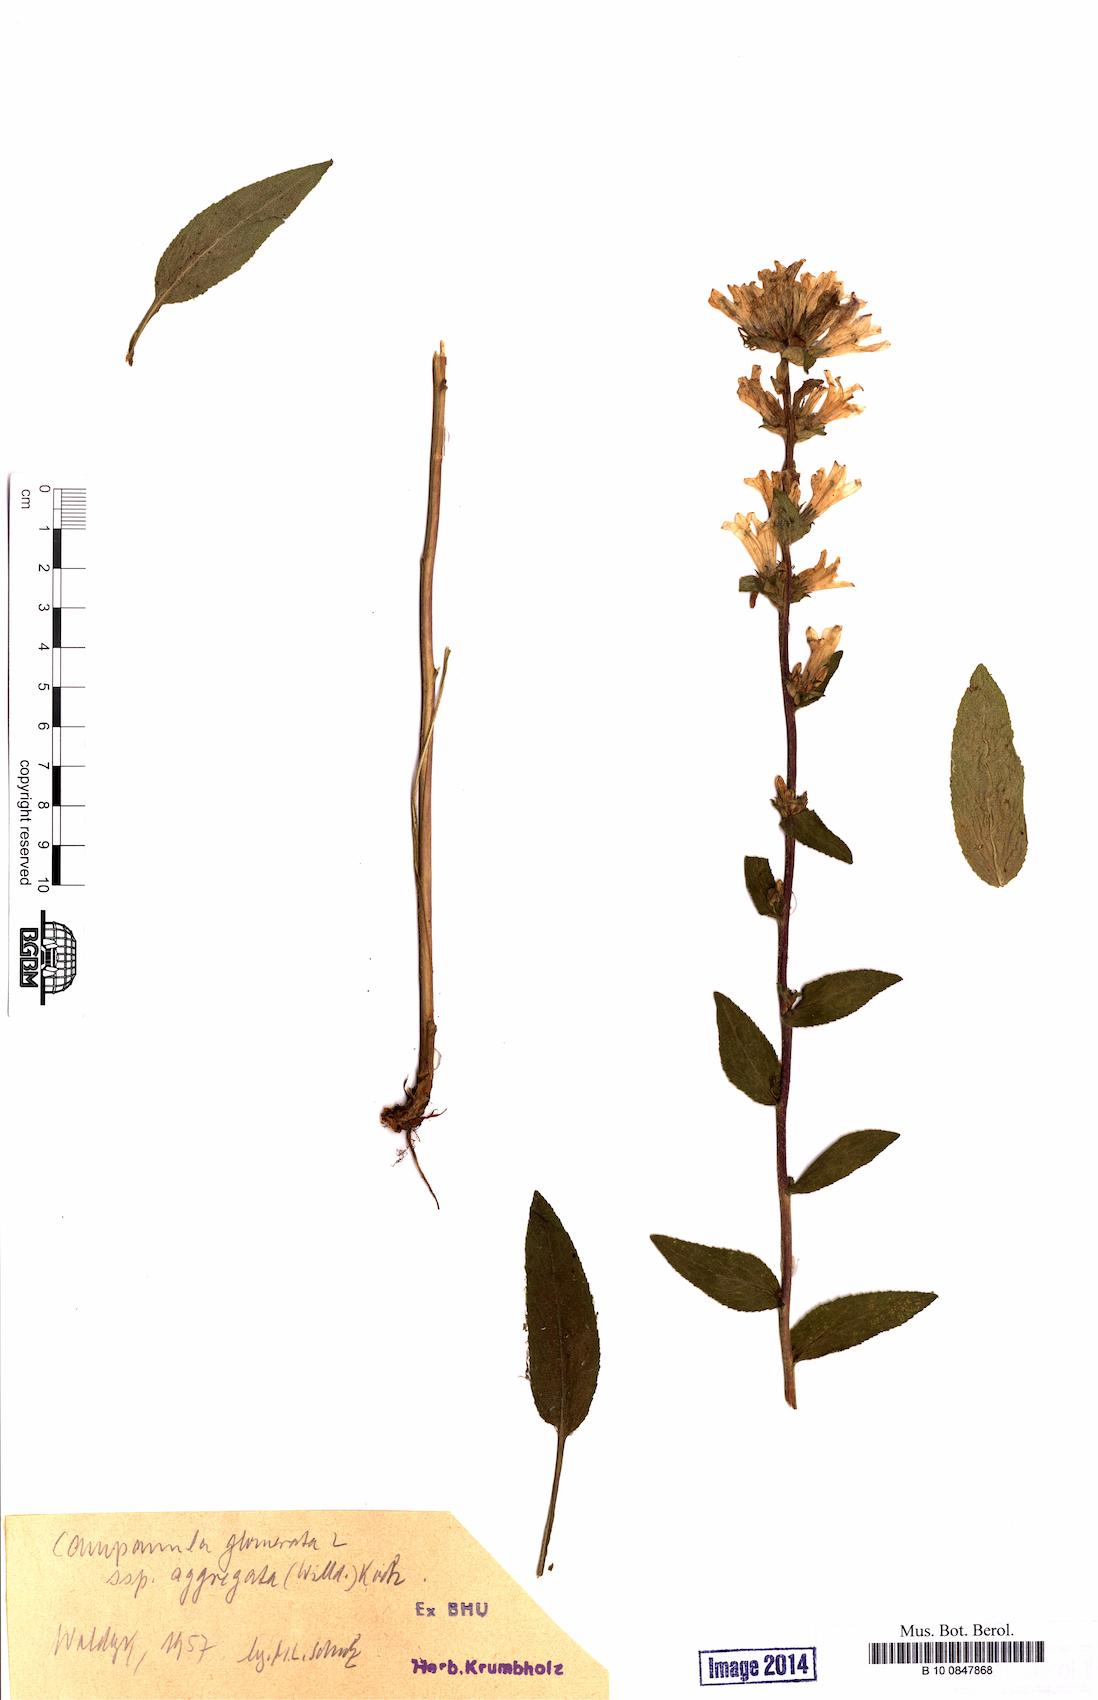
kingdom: Plantae
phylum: Tracheophyta
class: Magnoliopsida
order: Asterales
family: Campanulaceae
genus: Campanula
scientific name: Campanula glomerata
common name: Clustered bellflower
